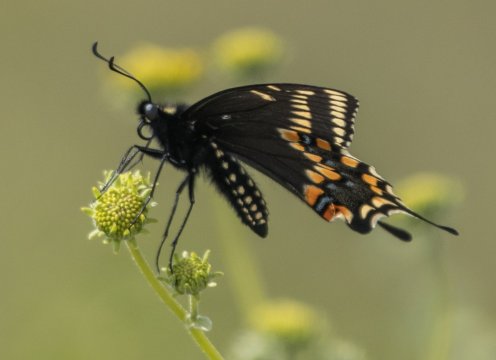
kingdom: Animalia
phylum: Arthropoda
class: Insecta
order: Lepidoptera
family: Papilionidae
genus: Papilio
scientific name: Papilio saharae
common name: Desert Swallowtail
